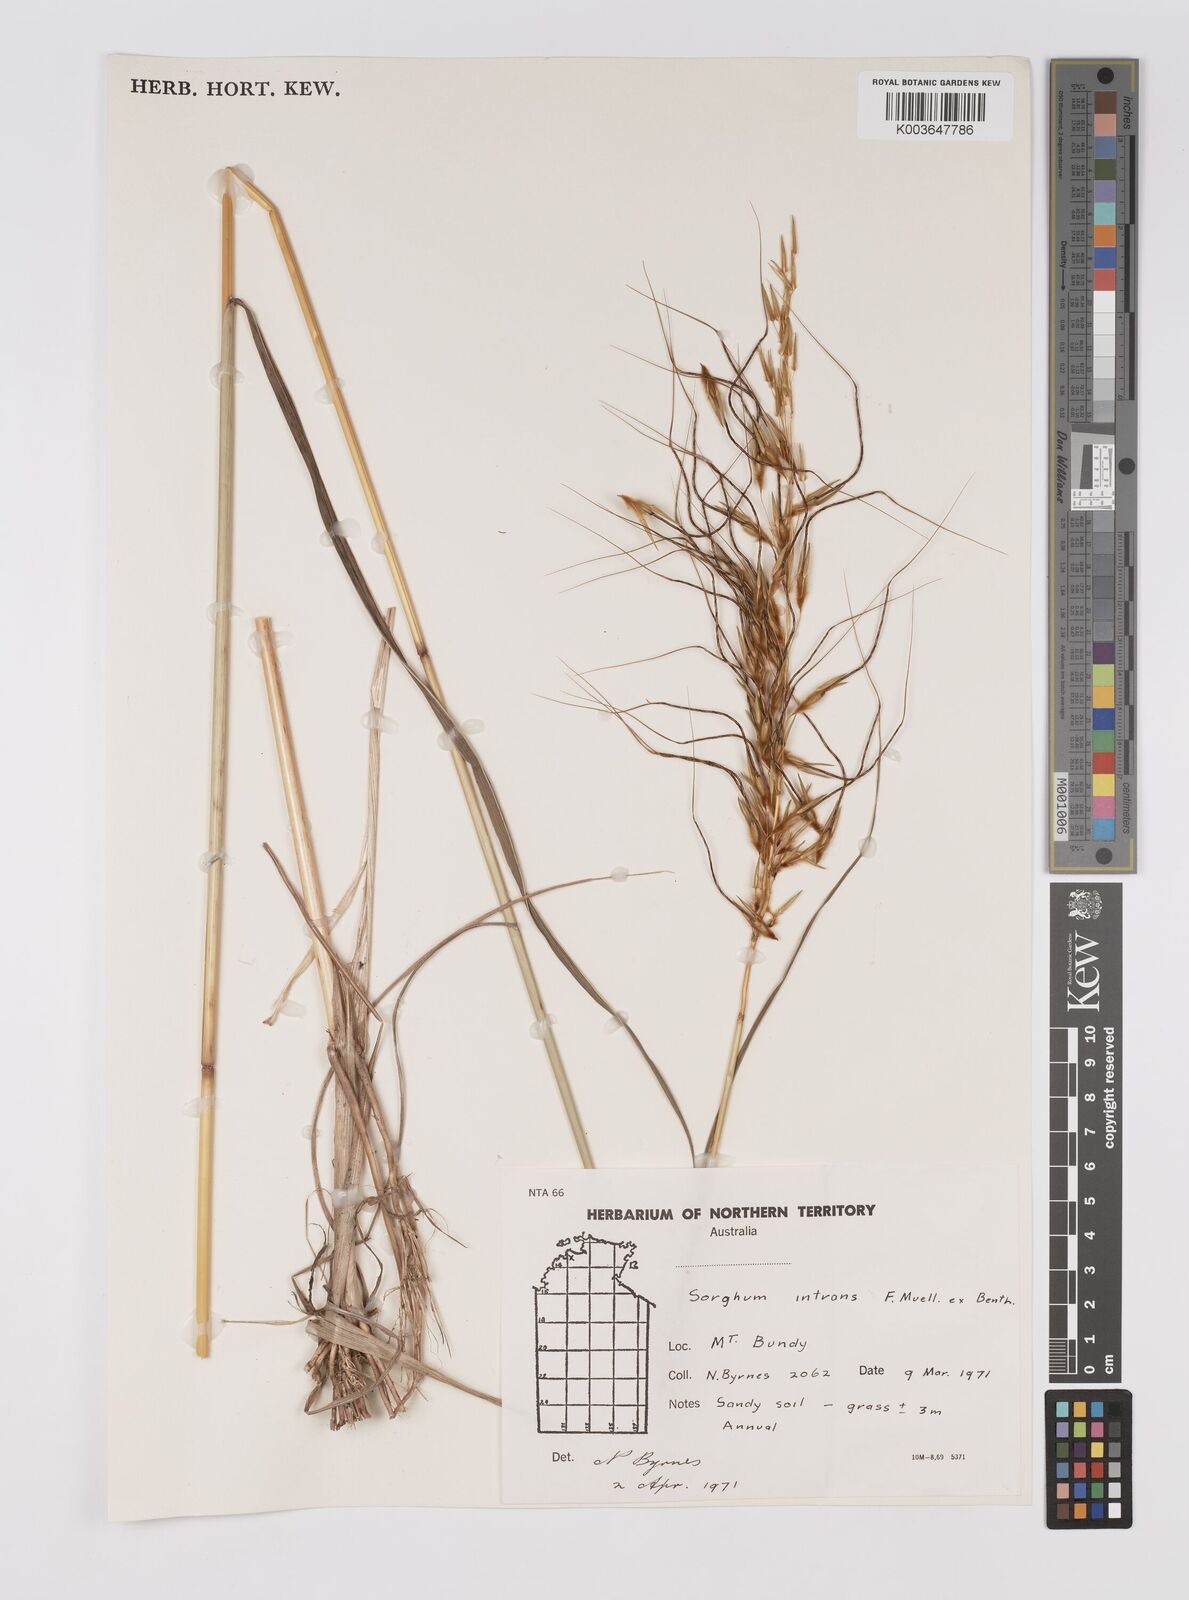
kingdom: Plantae
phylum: Tracheophyta
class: Liliopsida
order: Poales
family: Poaceae
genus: Sarga
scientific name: Sarga intrans
